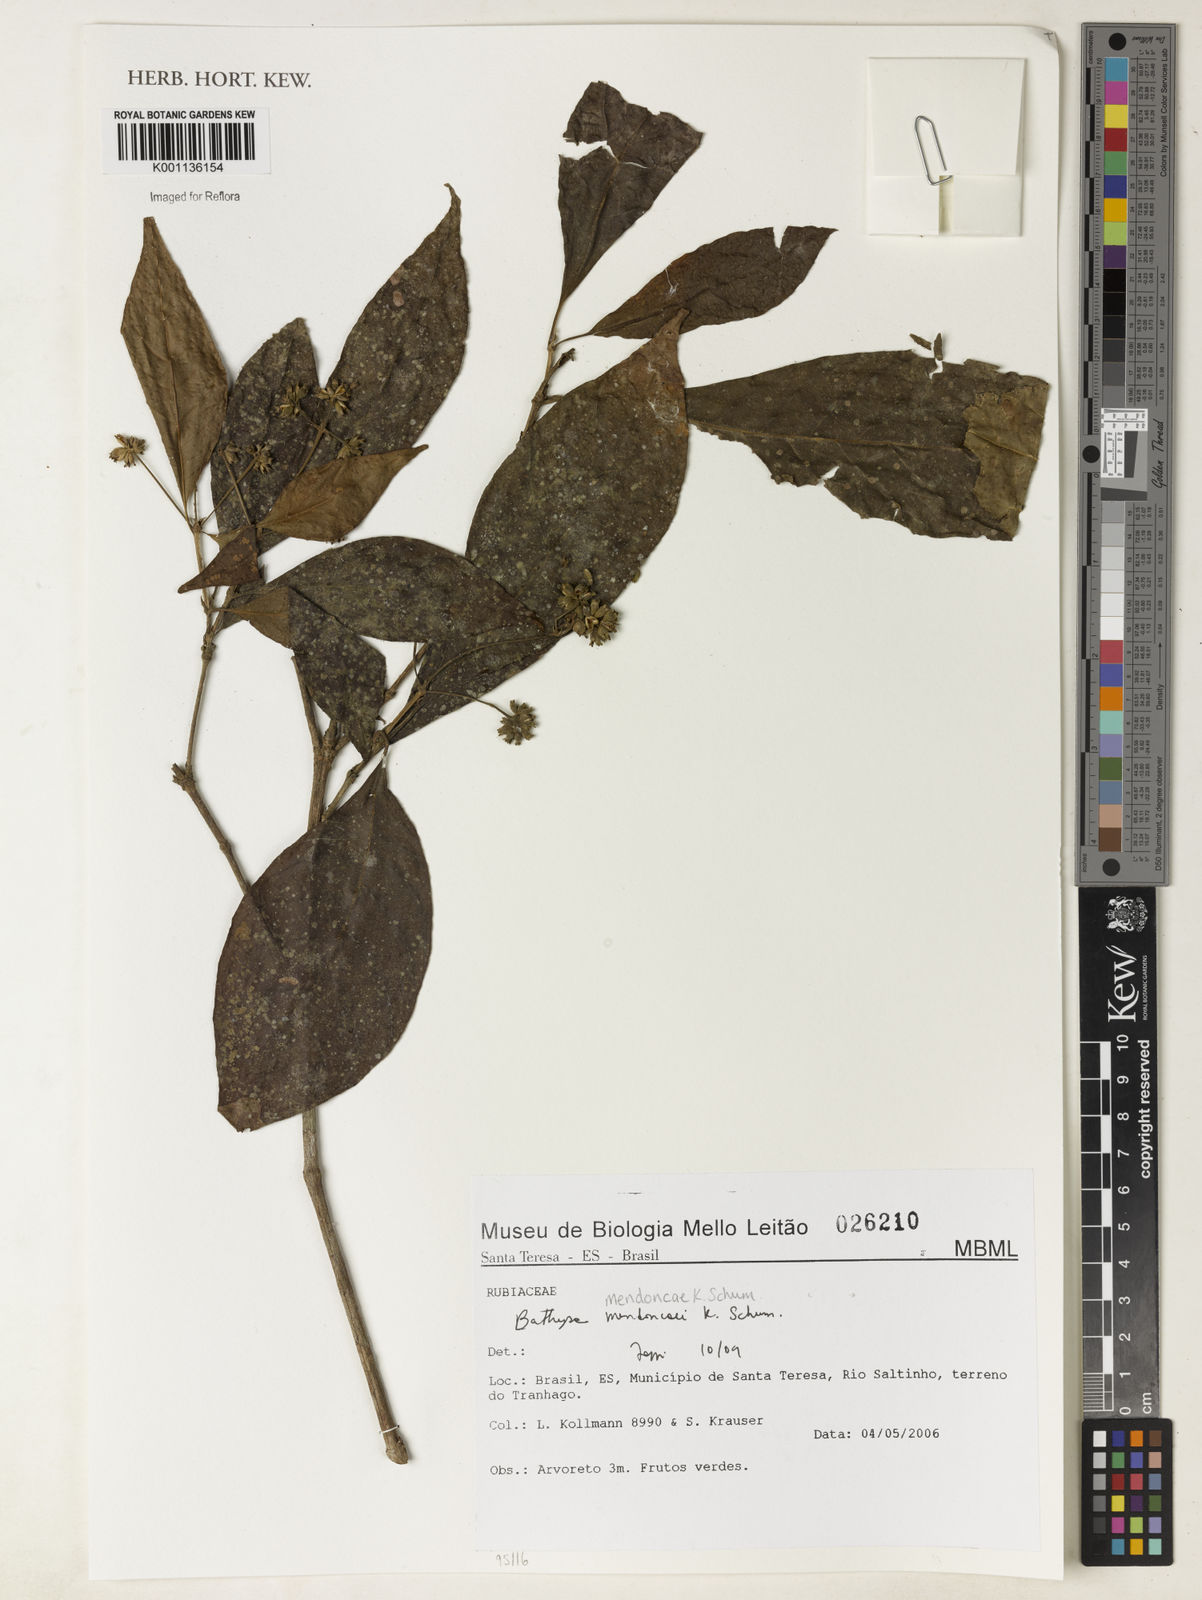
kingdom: Plantae
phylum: Tracheophyta
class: Magnoliopsida
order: Gentianales
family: Rubiaceae
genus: Bathysa
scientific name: Bathysa
